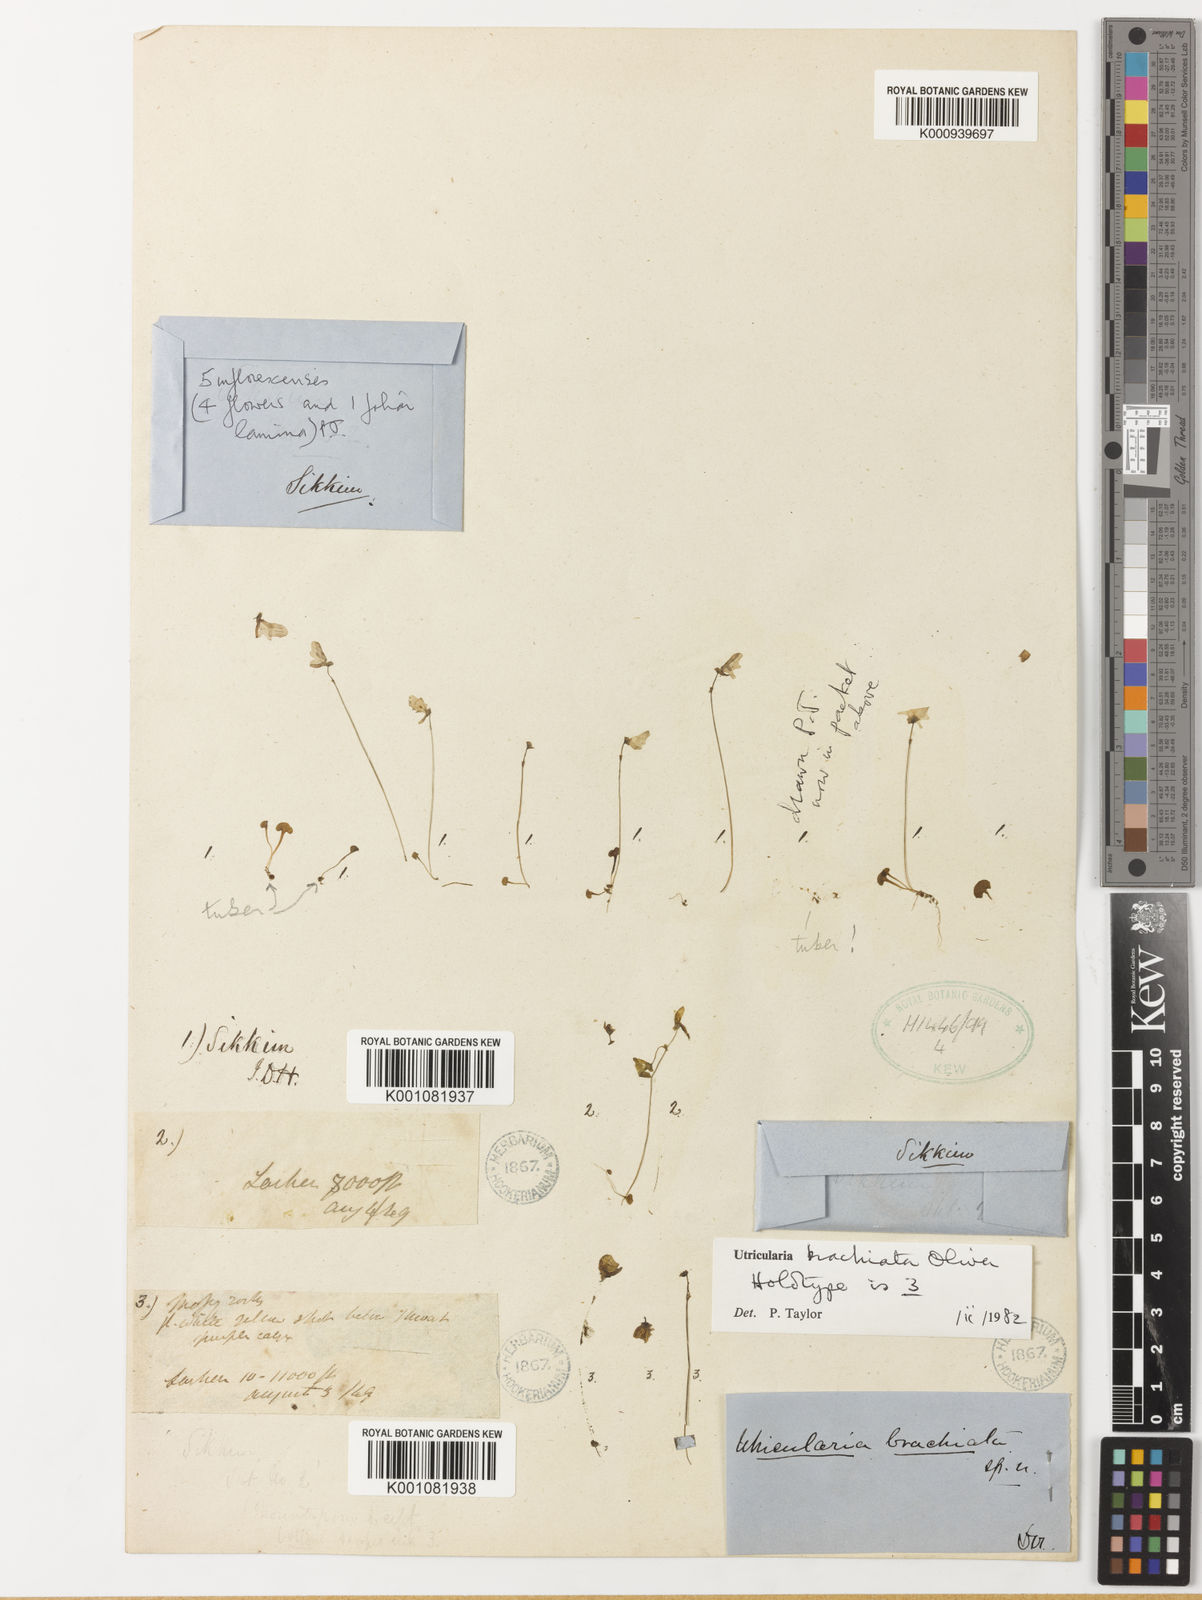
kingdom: Plantae
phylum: Tracheophyta
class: Magnoliopsida
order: Lamiales
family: Lentibulariaceae
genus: Utricularia
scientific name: Utricularia brachiata
